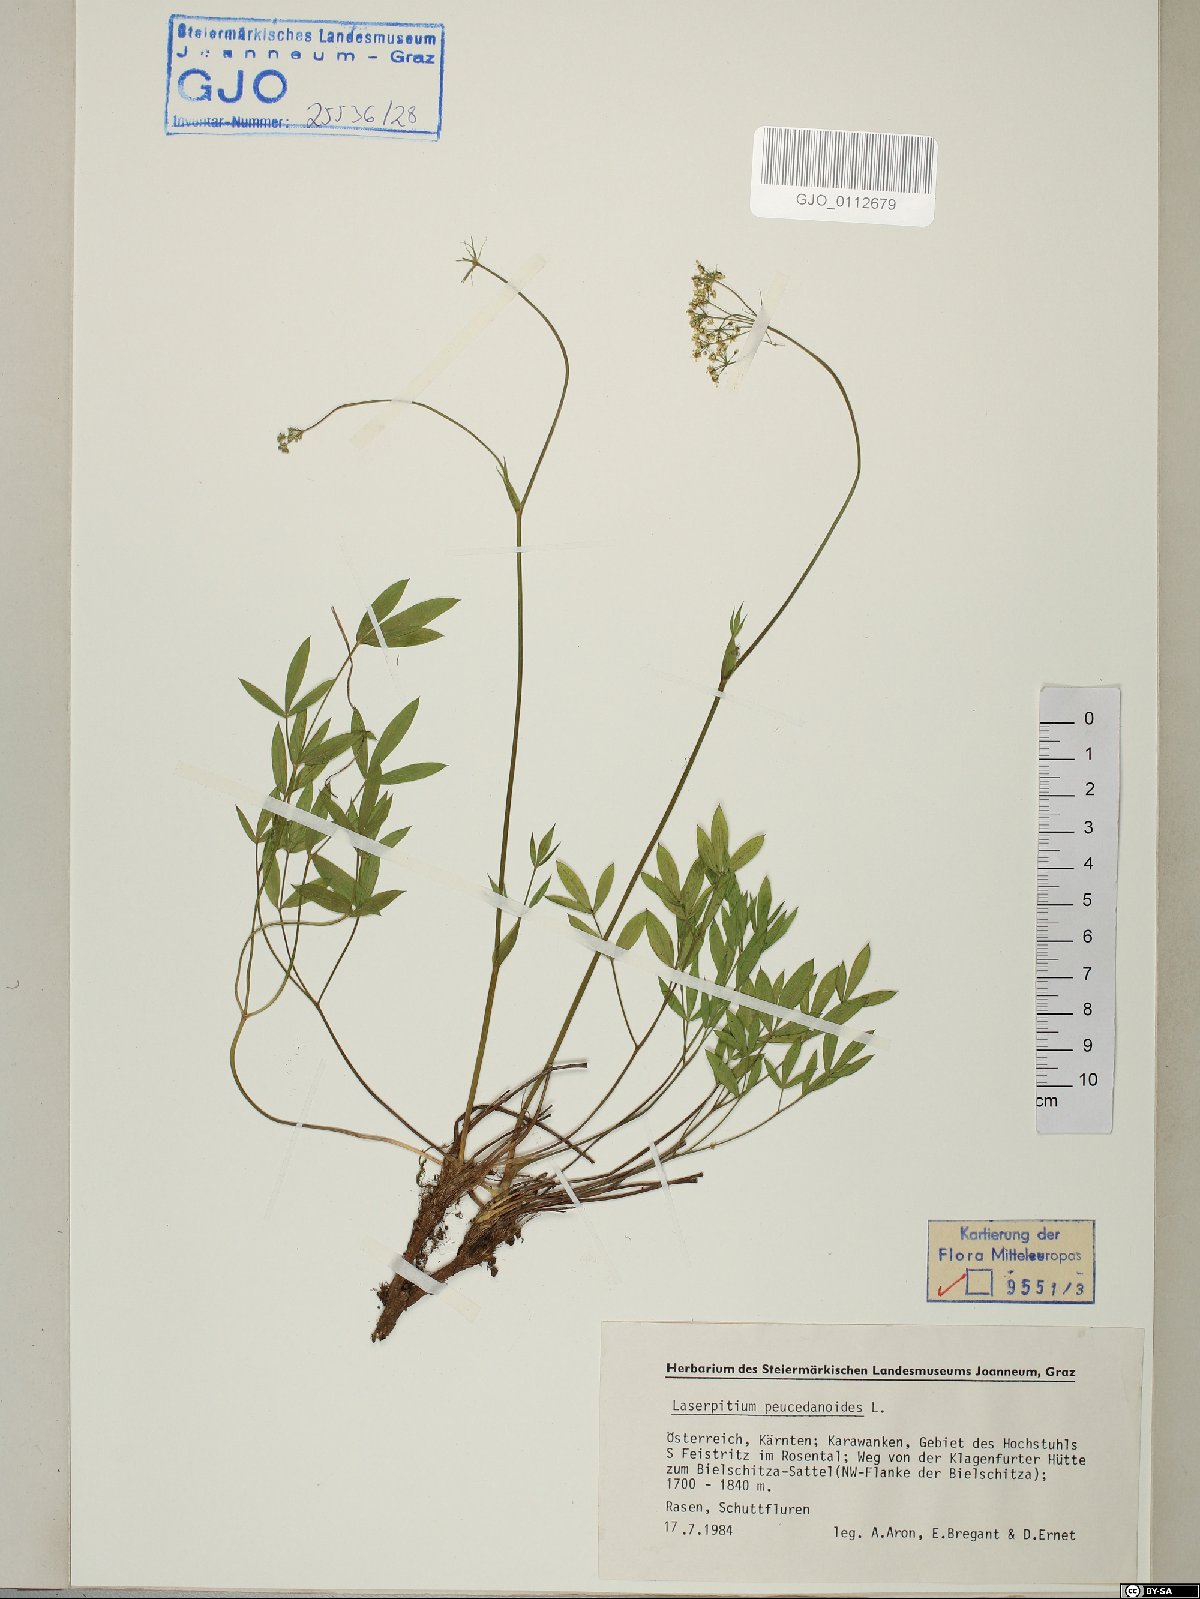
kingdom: Plantae
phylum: Tracheophyta
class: Magnoliopsida
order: Apiales
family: Apiaceae
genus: Laserpitium
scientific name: Laserpitium peucedanoides
